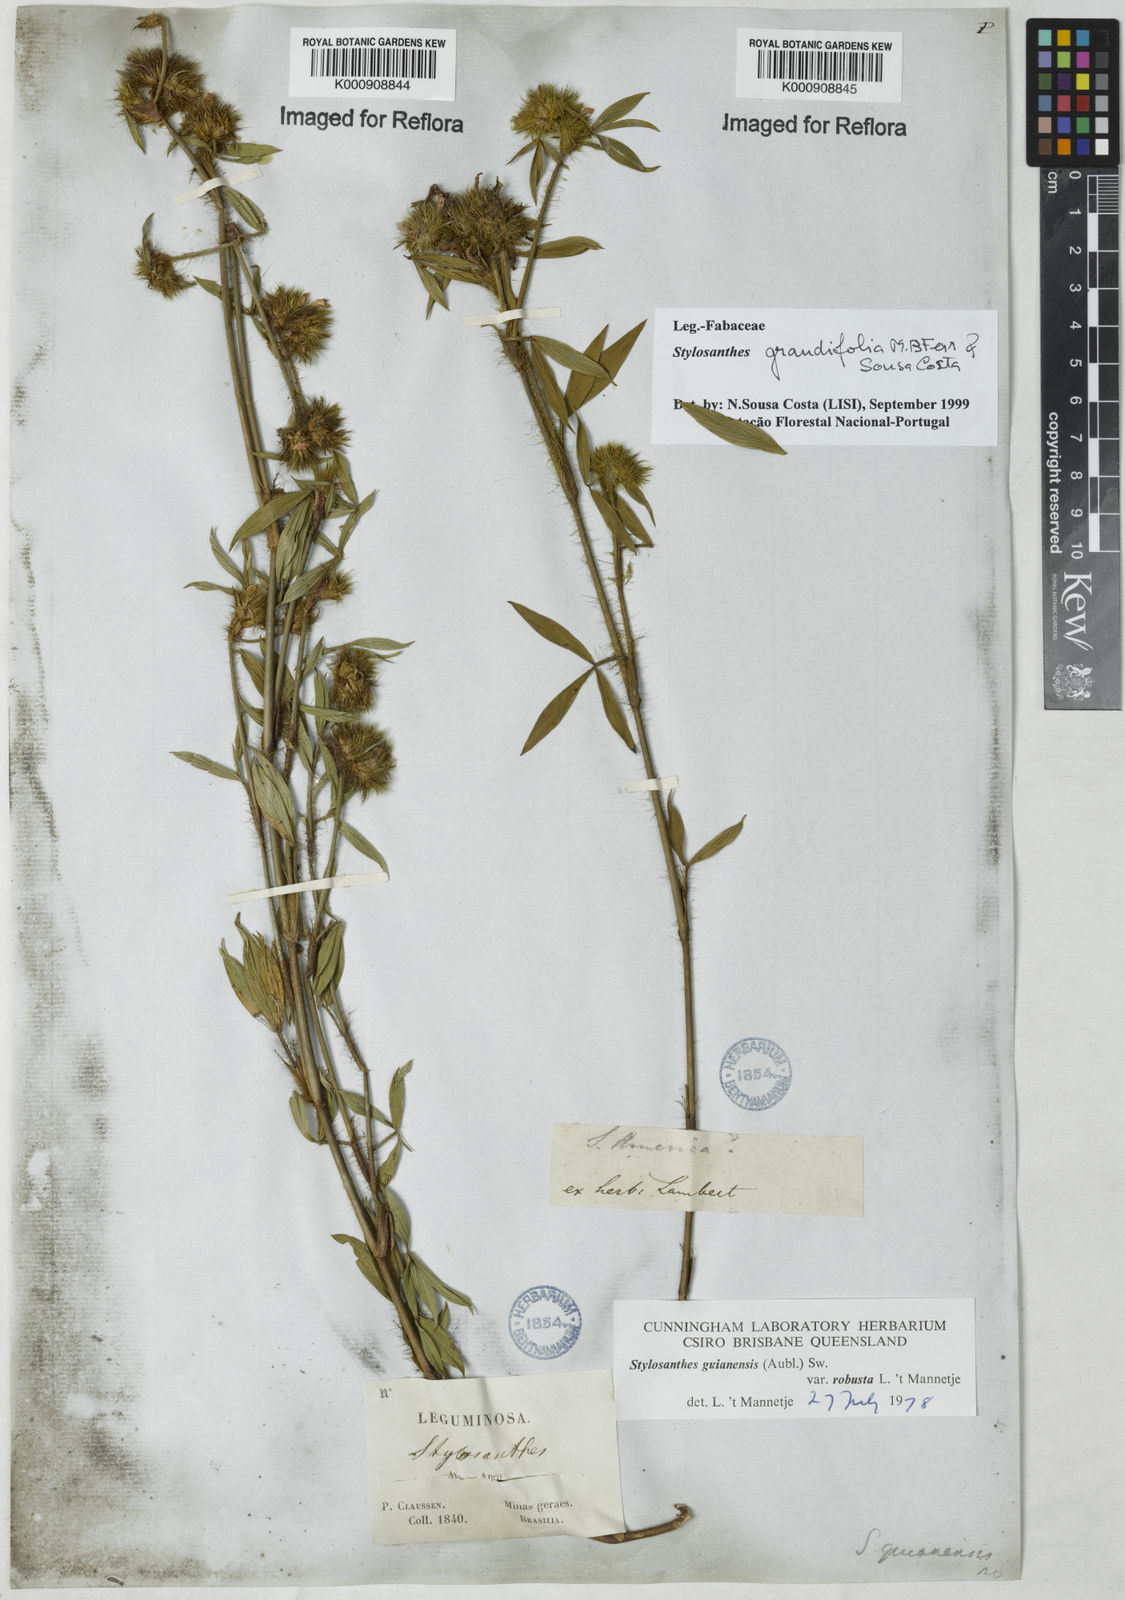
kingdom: Plantae
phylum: Tracheophyta
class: Magnoliopsida
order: Fabales
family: Fabaceae
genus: Stylosanthes
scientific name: Stylosanthes guianensis
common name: Pencil flower
